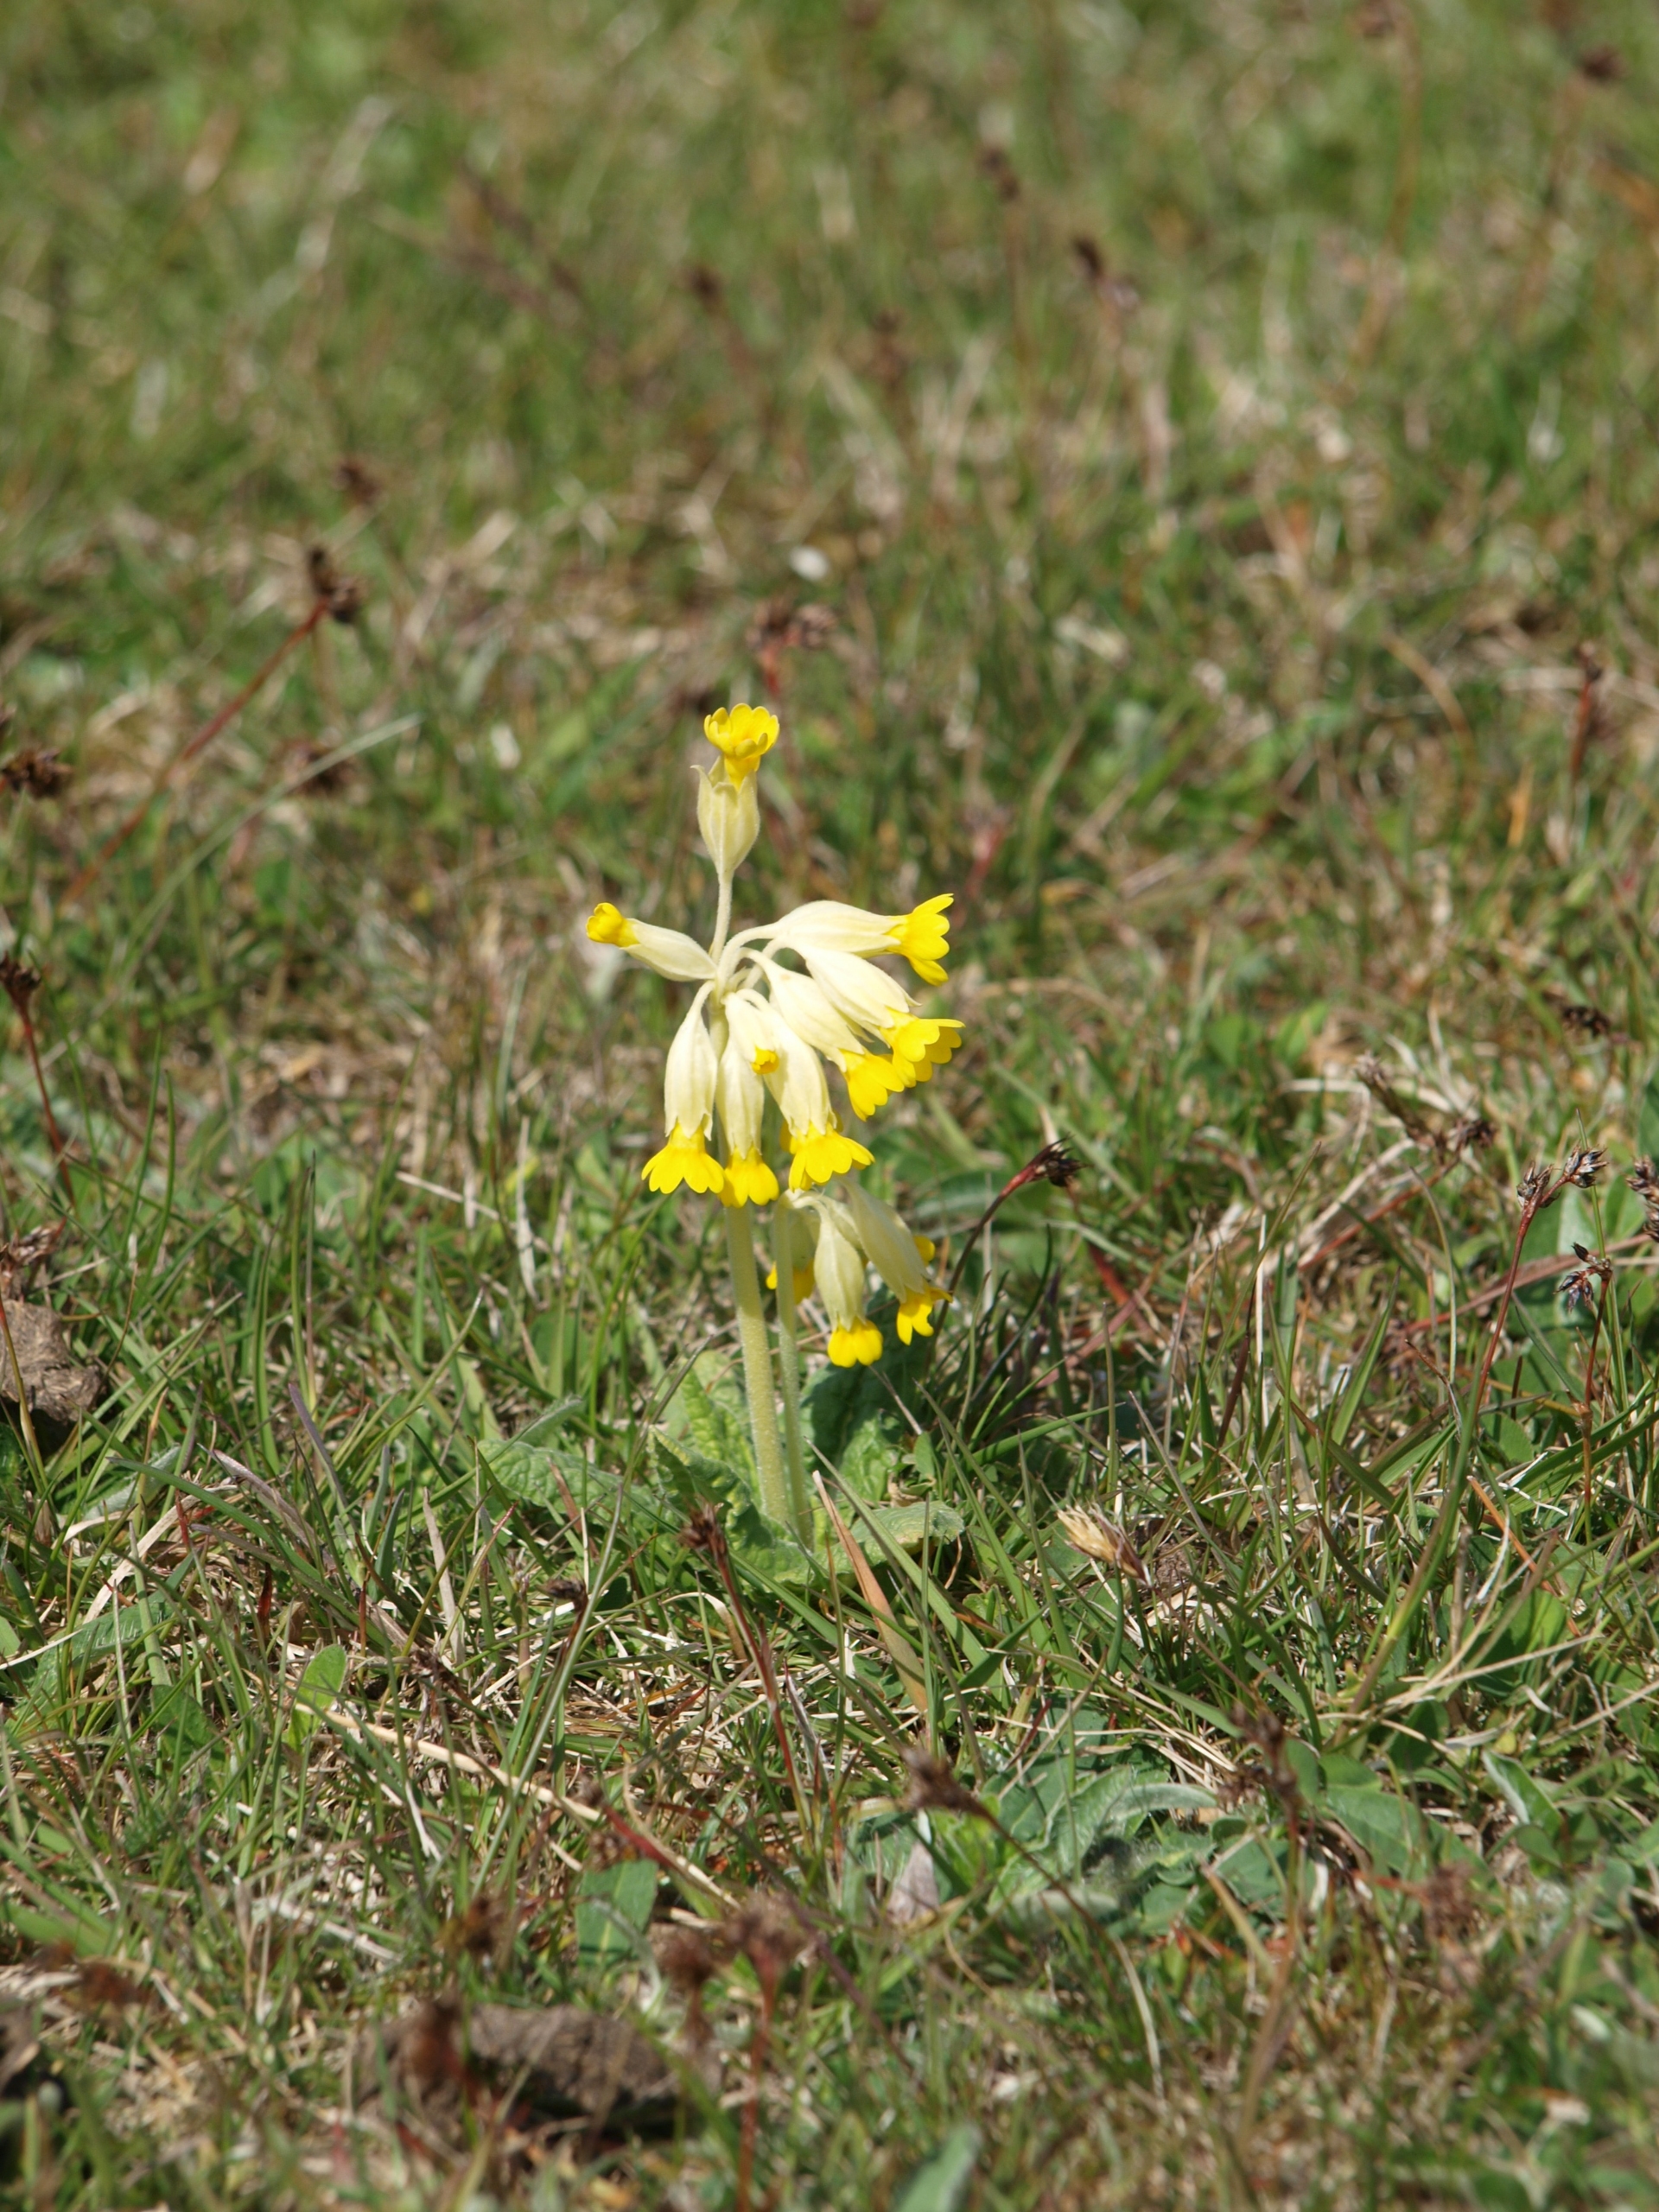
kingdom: Plantae
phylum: Tracheophyta
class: Magnoliopsida
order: Ericales
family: Primulaceae
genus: Primula
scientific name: Primula veris
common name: Hulkravet kodriver
